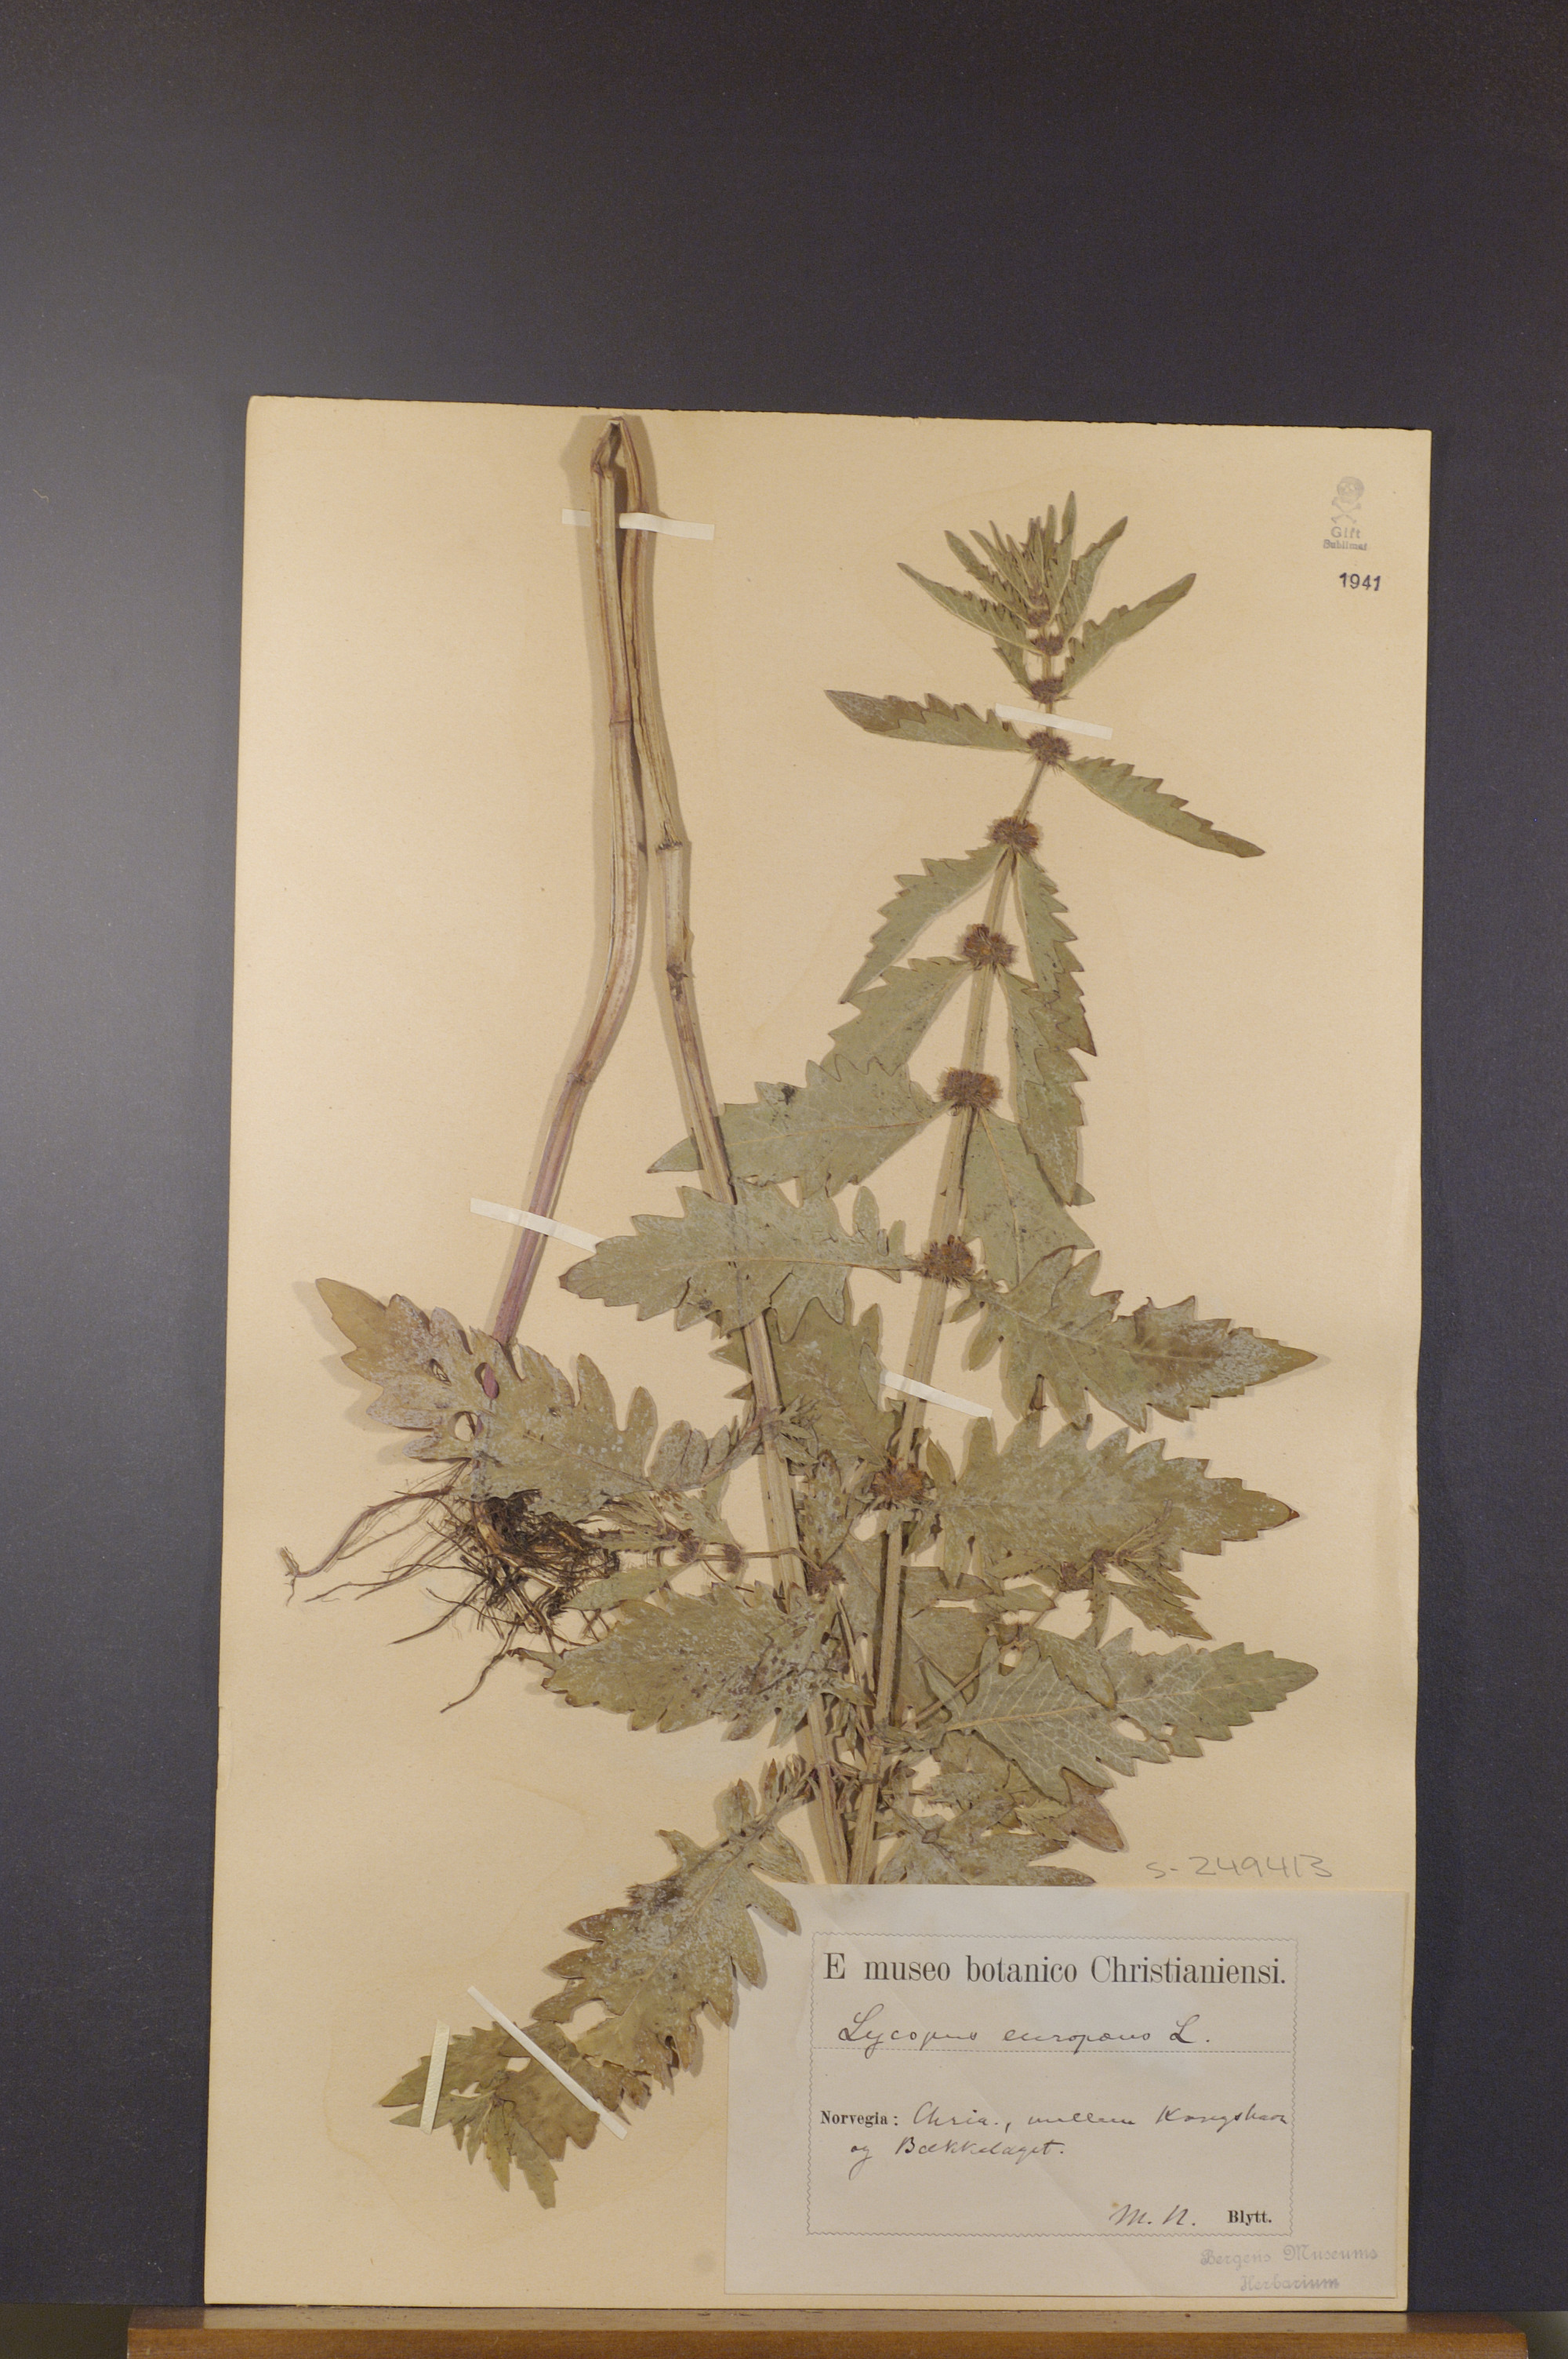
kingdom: Plantae
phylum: Tracheophyta
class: Magnoliopsida
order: Lamiales
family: Lamiaceae
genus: Lycopus
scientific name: Lycopus europaeus
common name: European bugleweed
